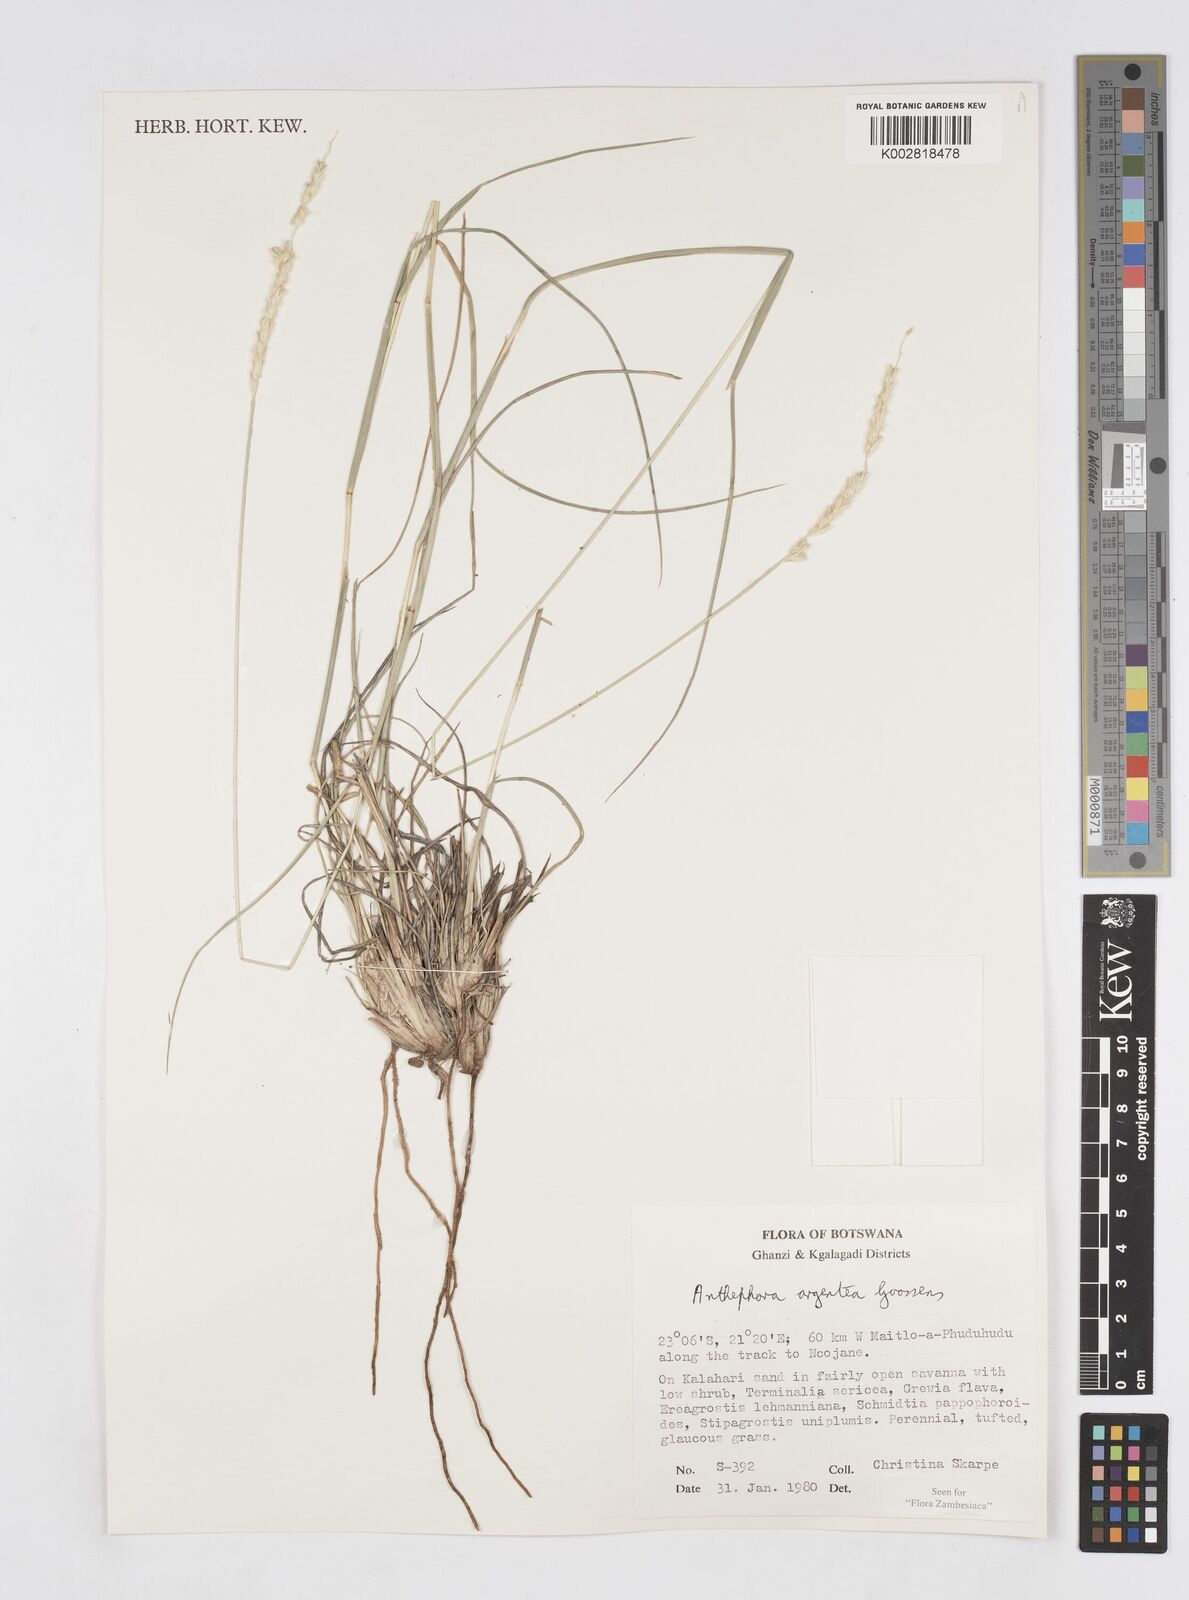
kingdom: Plantae
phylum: Tracheophyta
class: Liliopsida
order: Poales
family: Poaceae
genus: Anthephora
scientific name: Anthephora argentea
